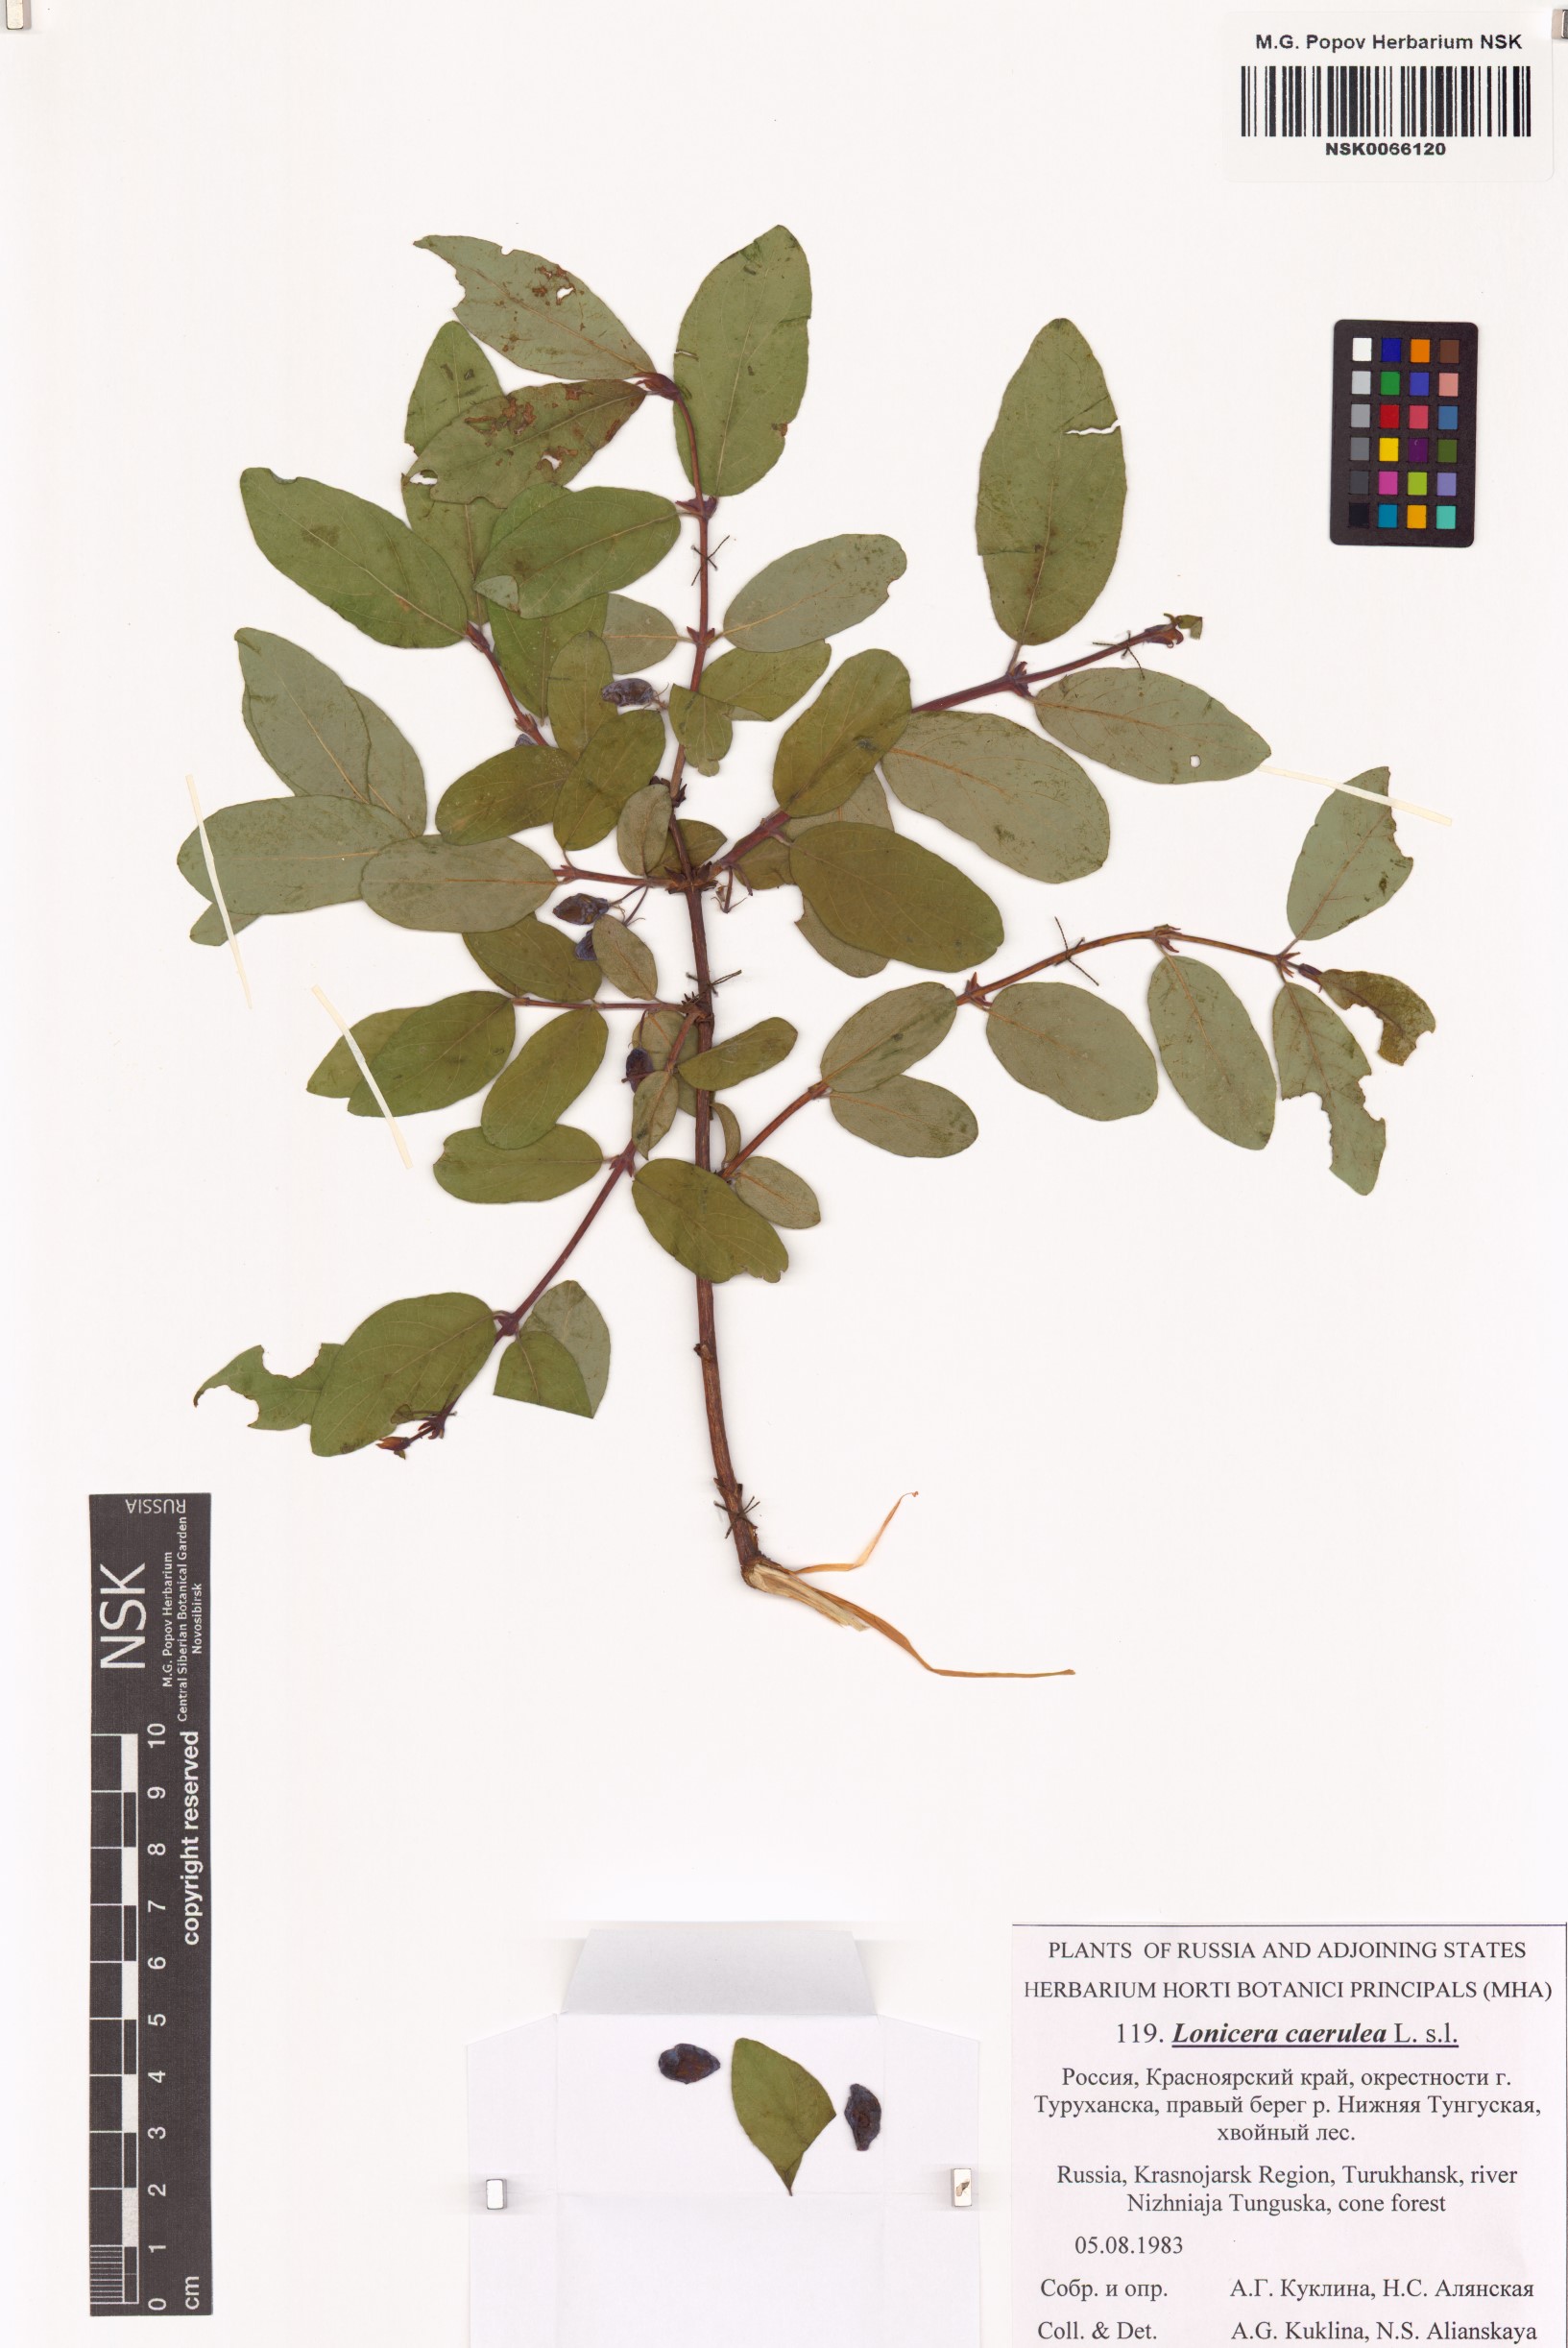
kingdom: Plantae
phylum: Tracheophyta
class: Magnoliopsida
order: Dipsacales
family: Caprifoliaceae
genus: Lonicera
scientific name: Lonicera caerulea
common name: Blue honeysuckle
